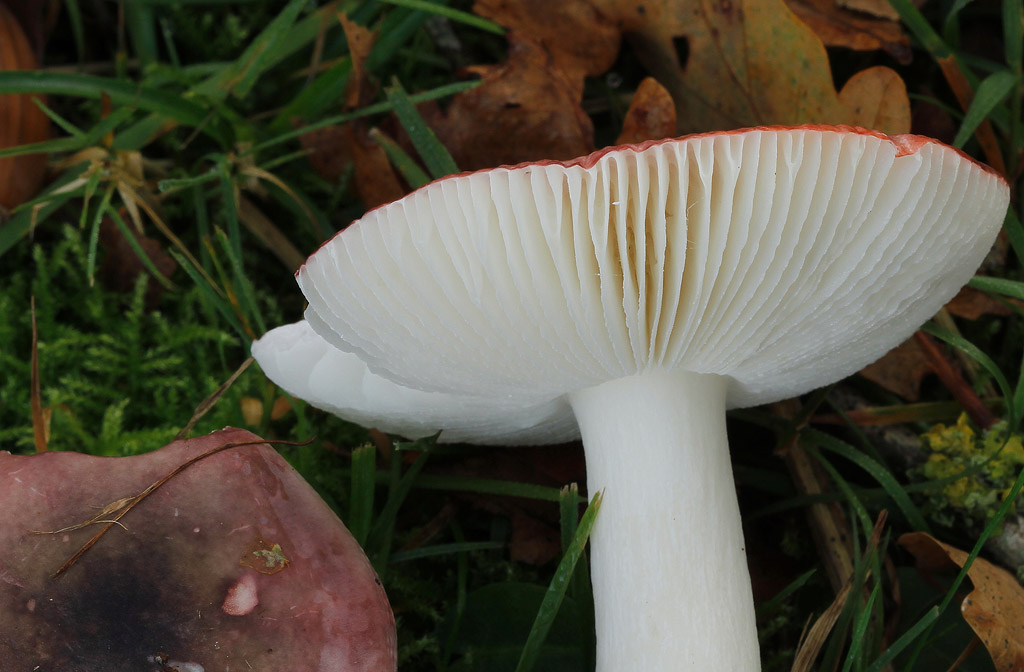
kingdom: Fungi
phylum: Basidiomycota
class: Agaricomycetes
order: Russulales
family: Russulaceae
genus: Russula
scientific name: Russula fragilis
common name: Fragile brittlegill
